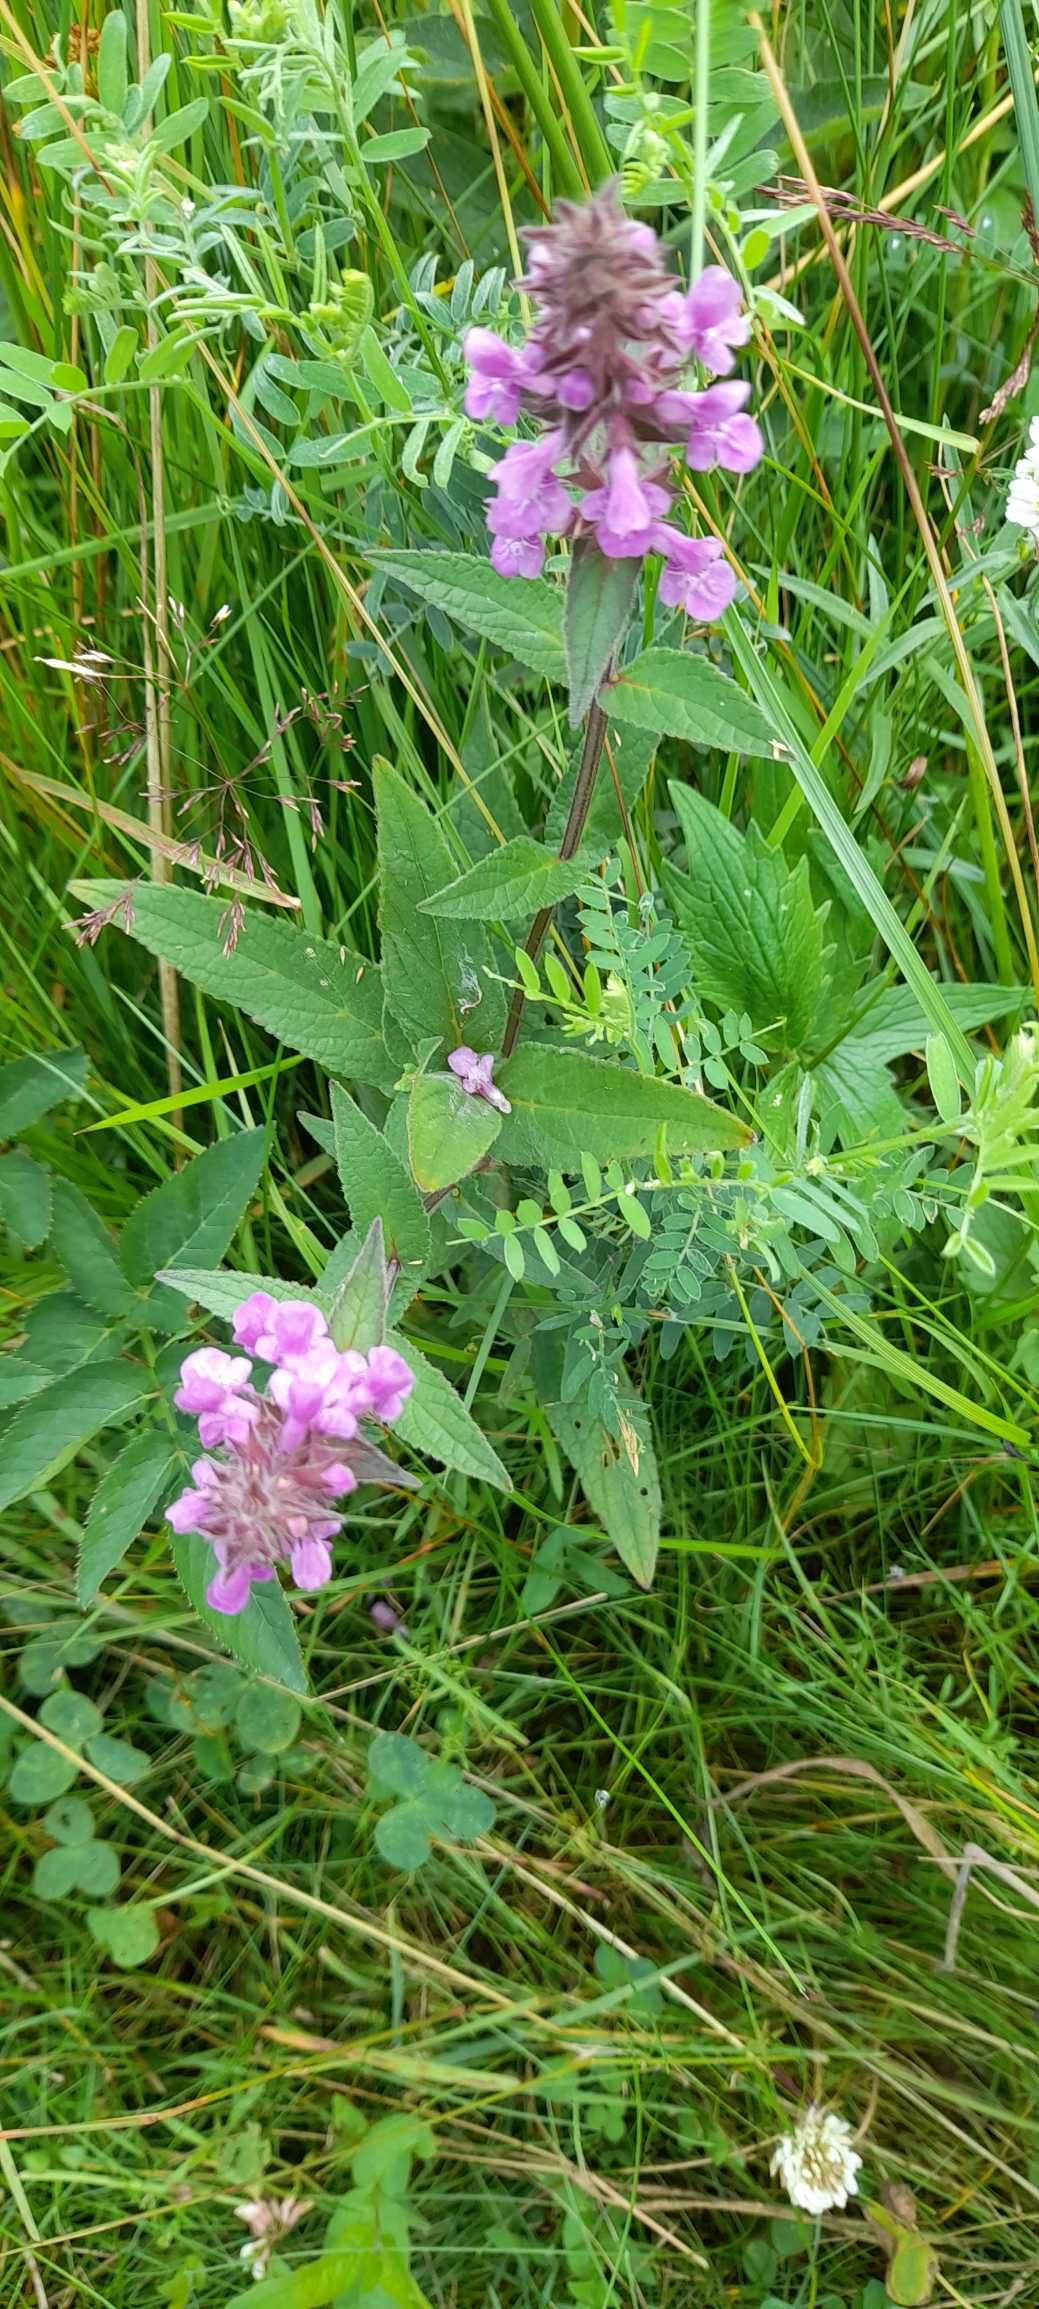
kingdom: Plantae
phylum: Tracheophyta
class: Magnoliopsida
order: Lamiales
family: Lamiaceae
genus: Stachys
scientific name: Stachys palustris
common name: Kær-galtetand
